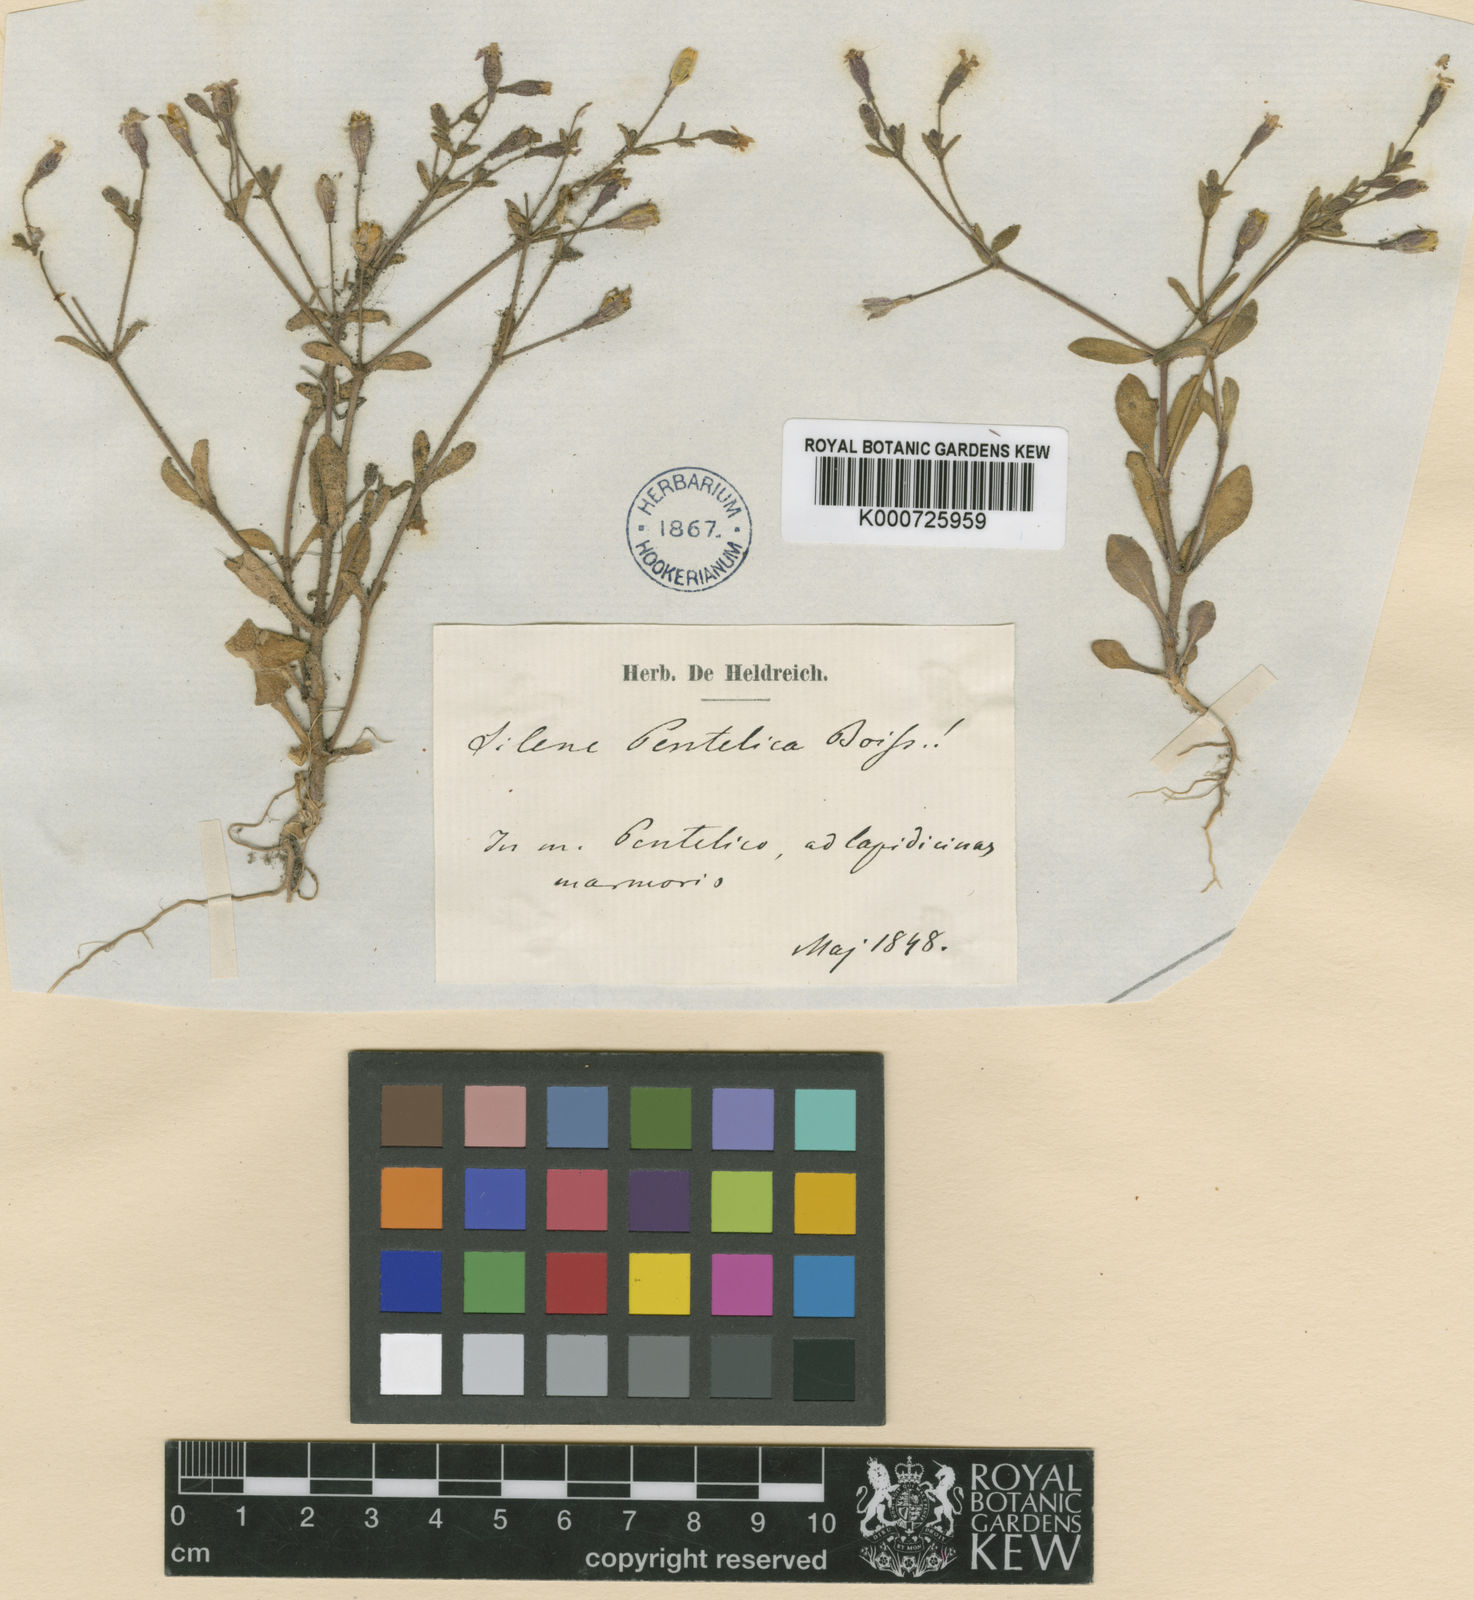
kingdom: Plantae
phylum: Tracheophyta
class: Magnoliopsida
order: Caryophyllales
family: Caryophyllaceae
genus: Silene
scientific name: Silene pentelica
